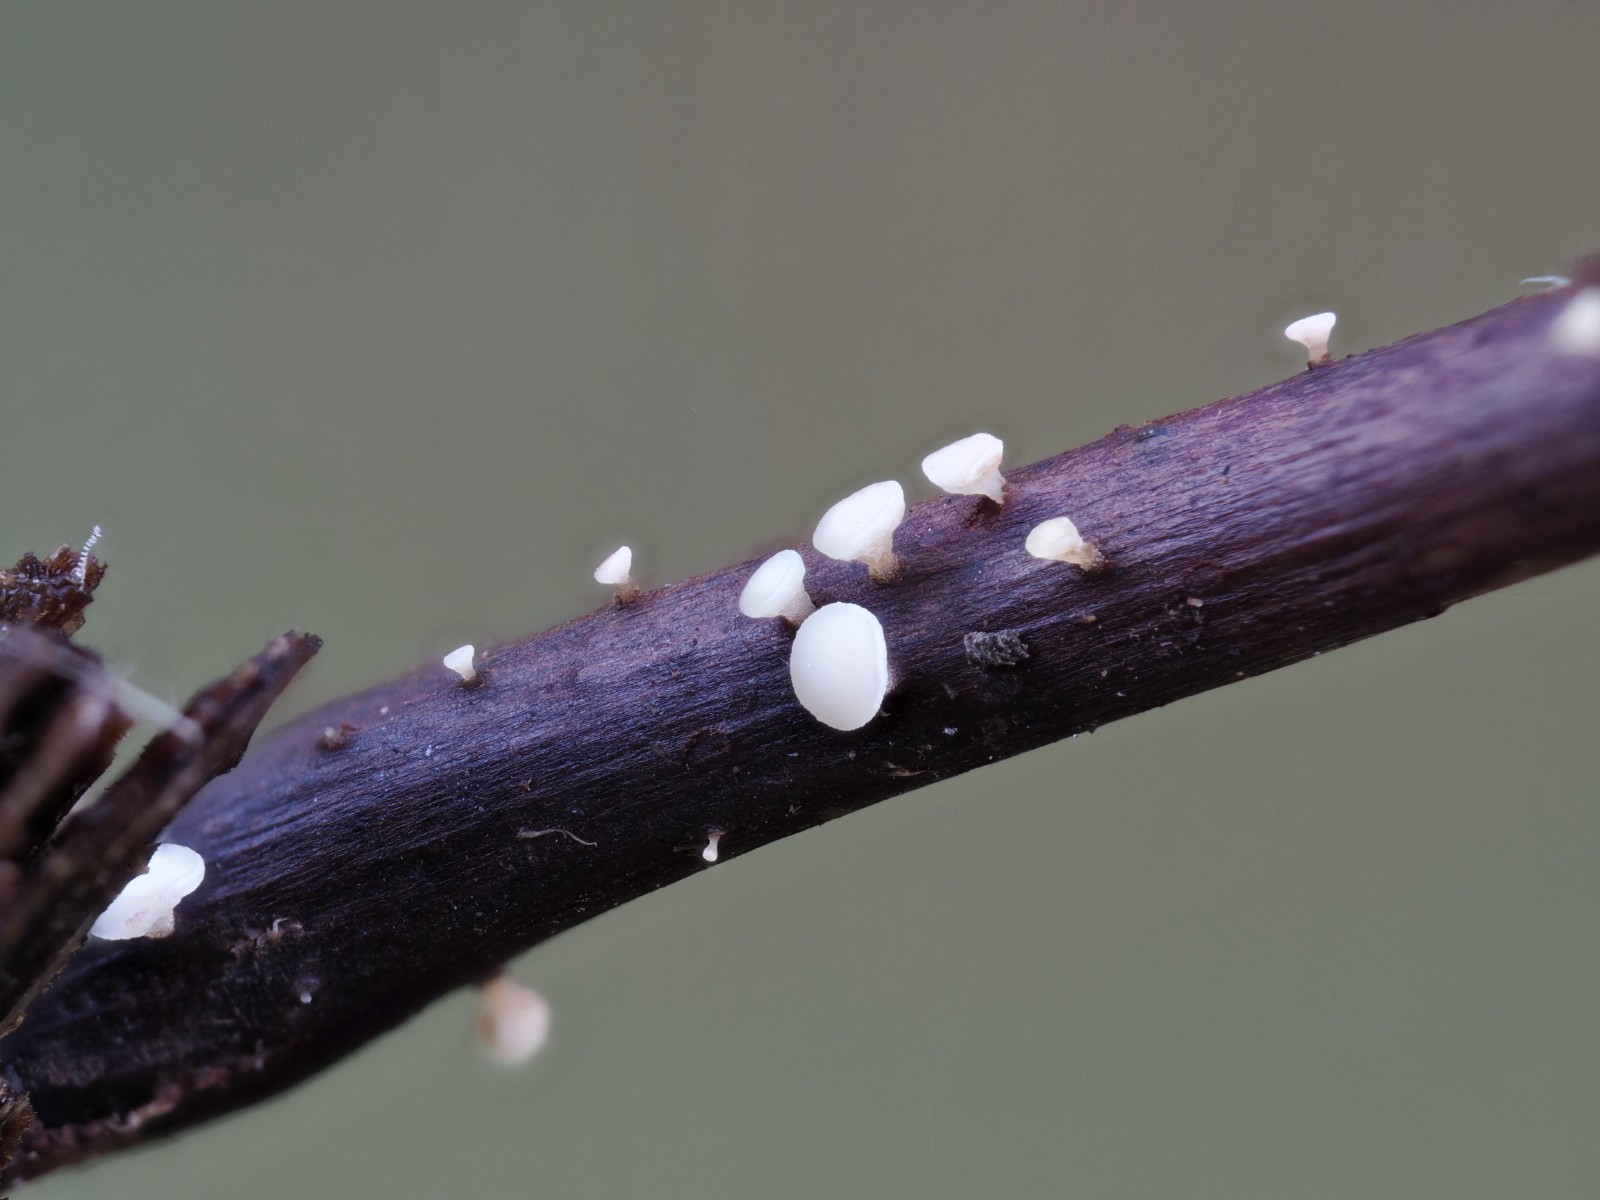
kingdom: Fungi
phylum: Ascomycota
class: Leotiomycetes
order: Helotiales
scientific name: Helotiales
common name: stilkskiveordenen
